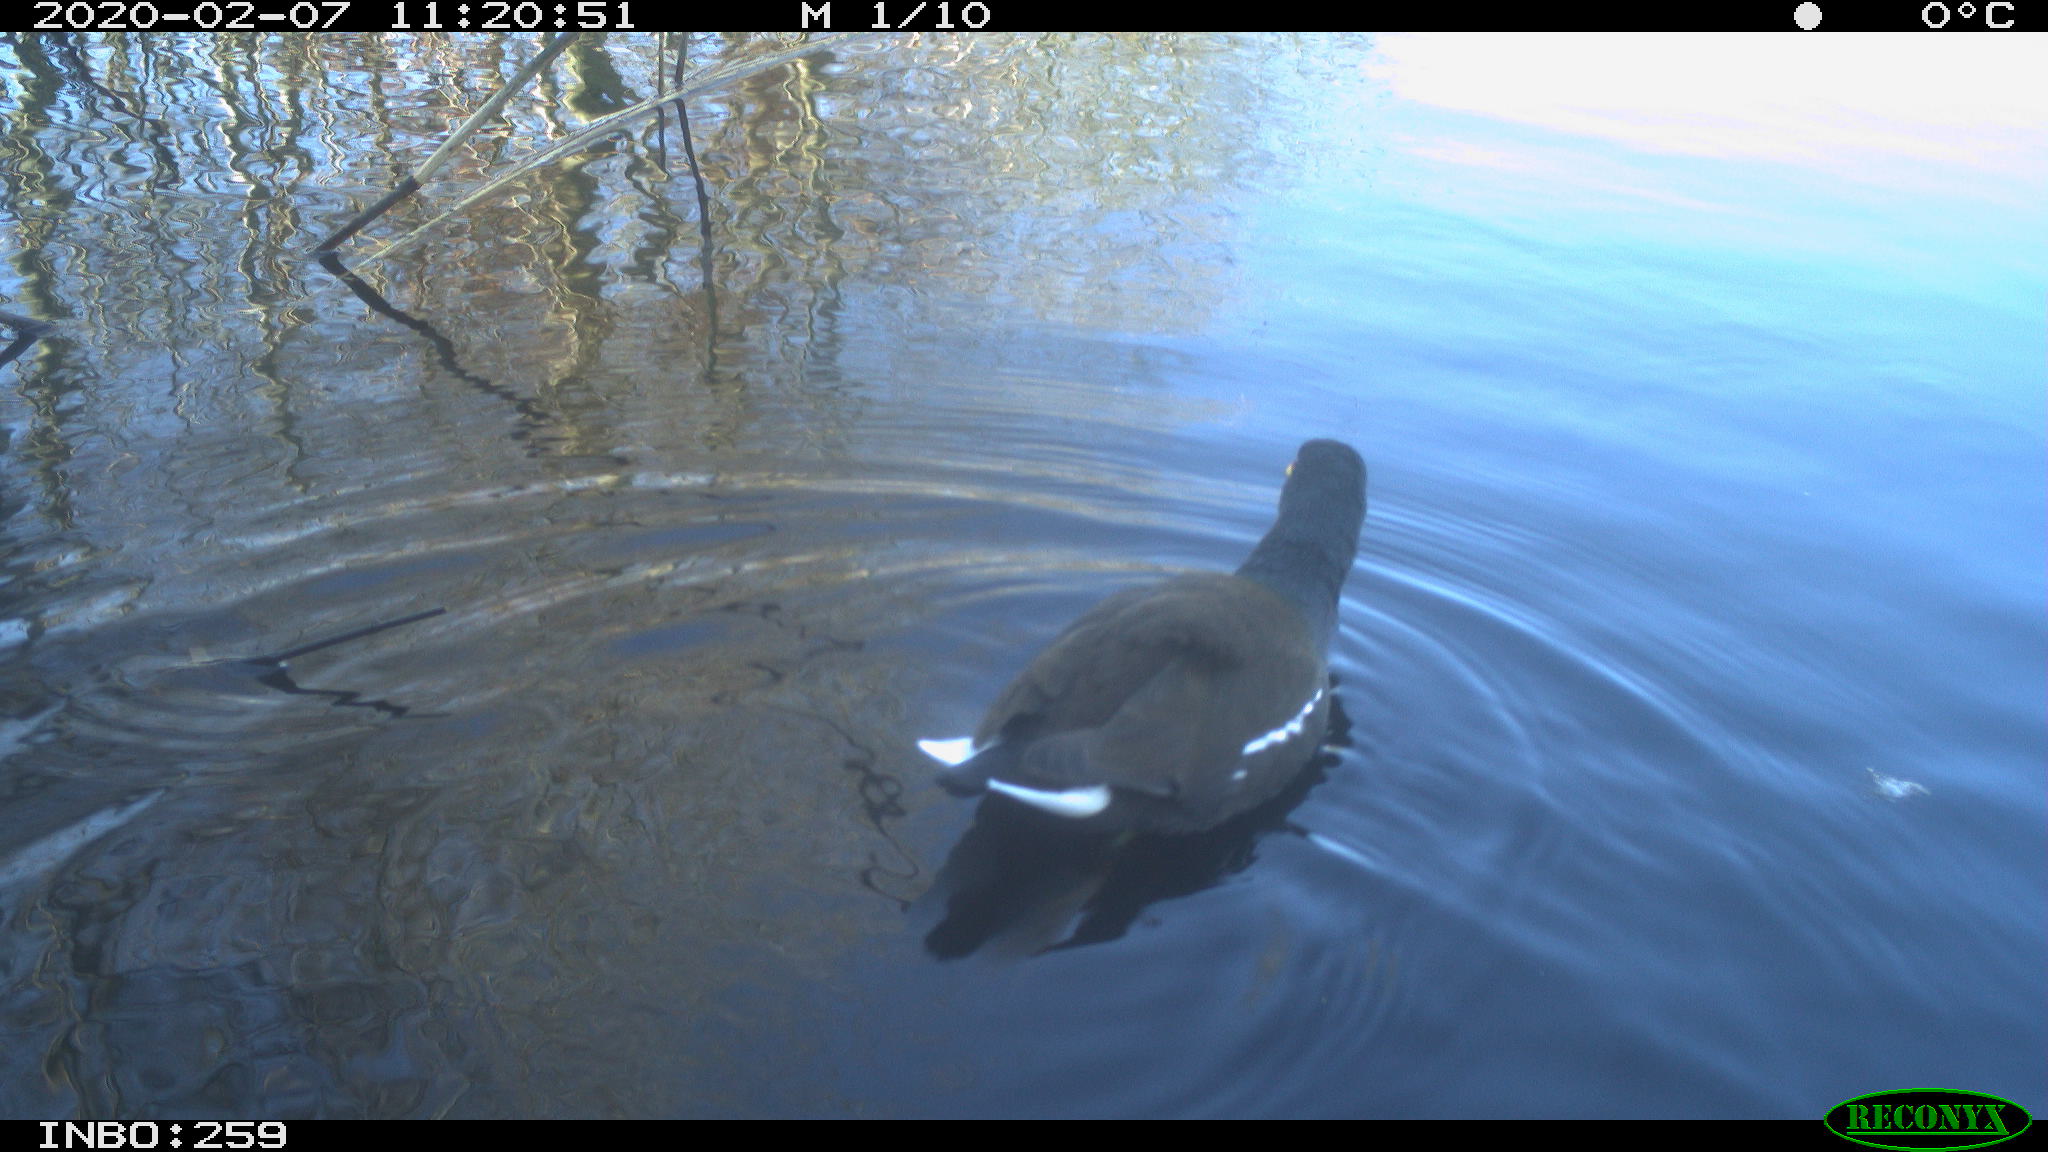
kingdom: Animalia
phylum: Chordata
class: Aves
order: Gruiformes
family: Rallidae
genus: Gallinula
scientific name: Gallinula chloropus
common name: Common moorhen
